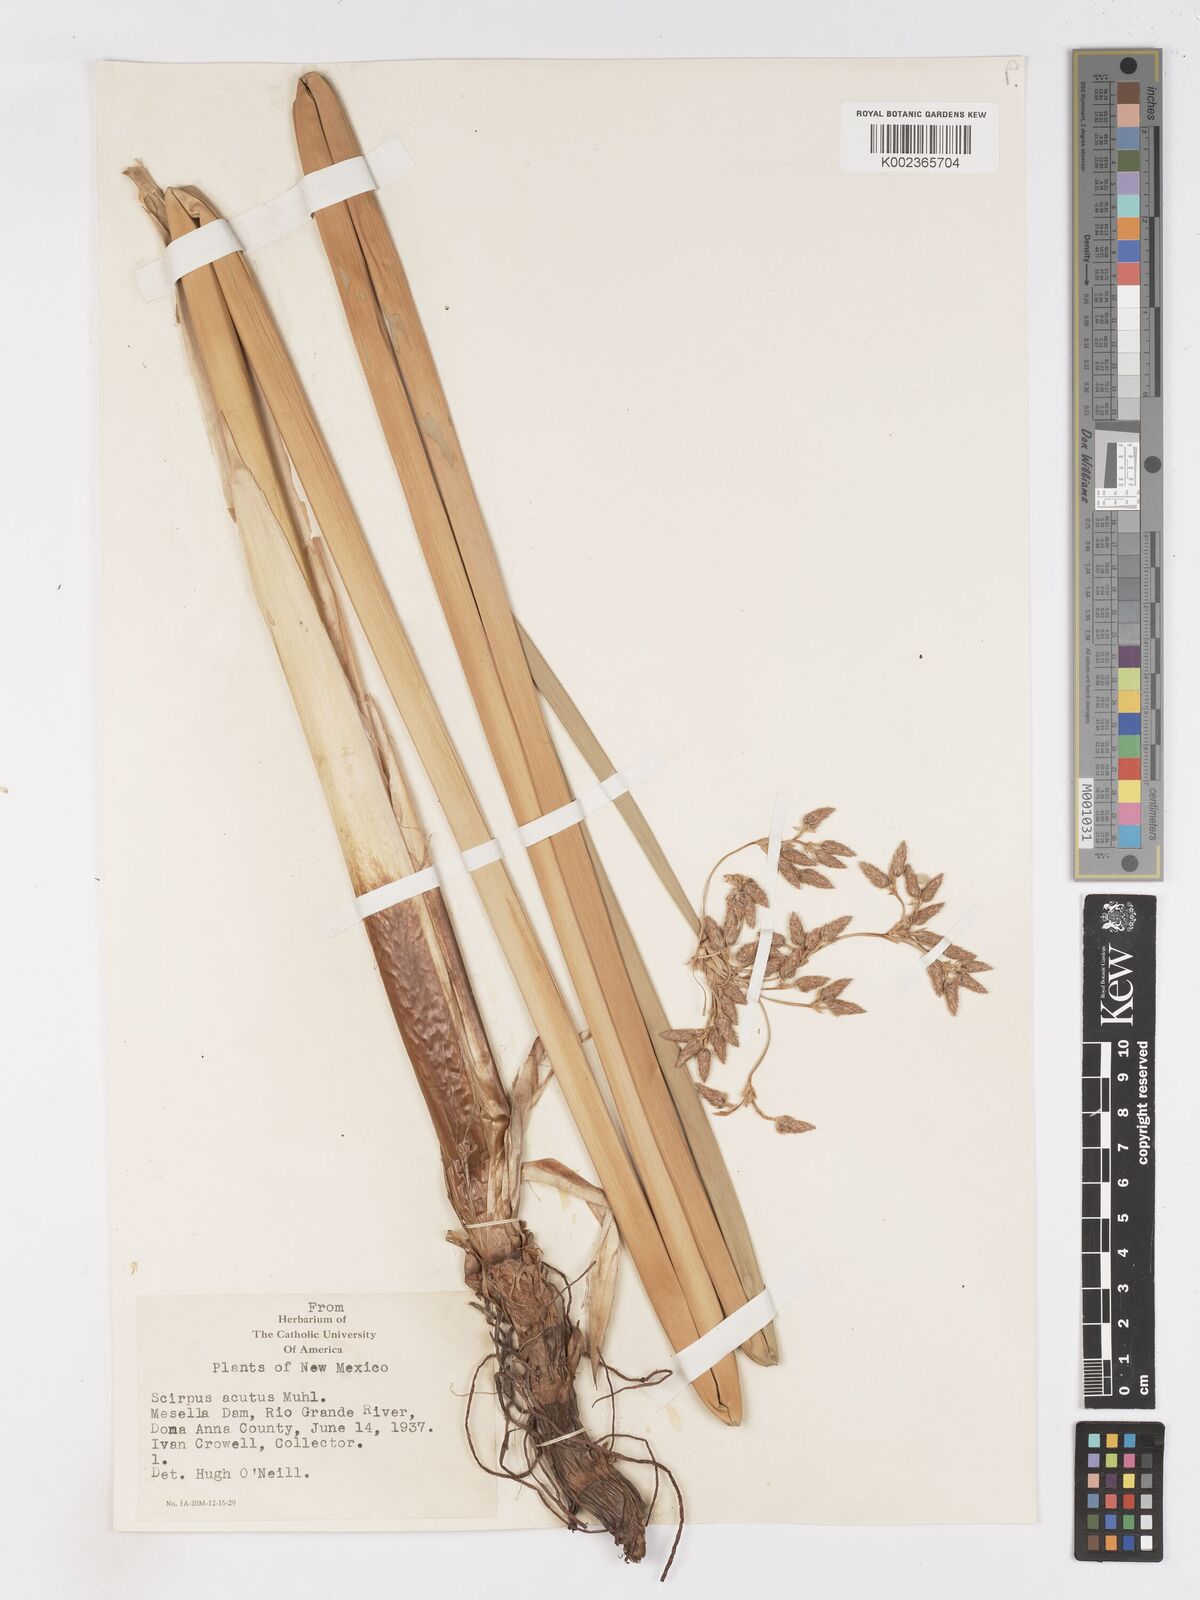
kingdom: Plantae
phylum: Tracheophyta
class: Liliopsida
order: Poales
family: Cyperaceae
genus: Schoenoplectus
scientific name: Schoenoplectus lacustris
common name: Common club-rush
